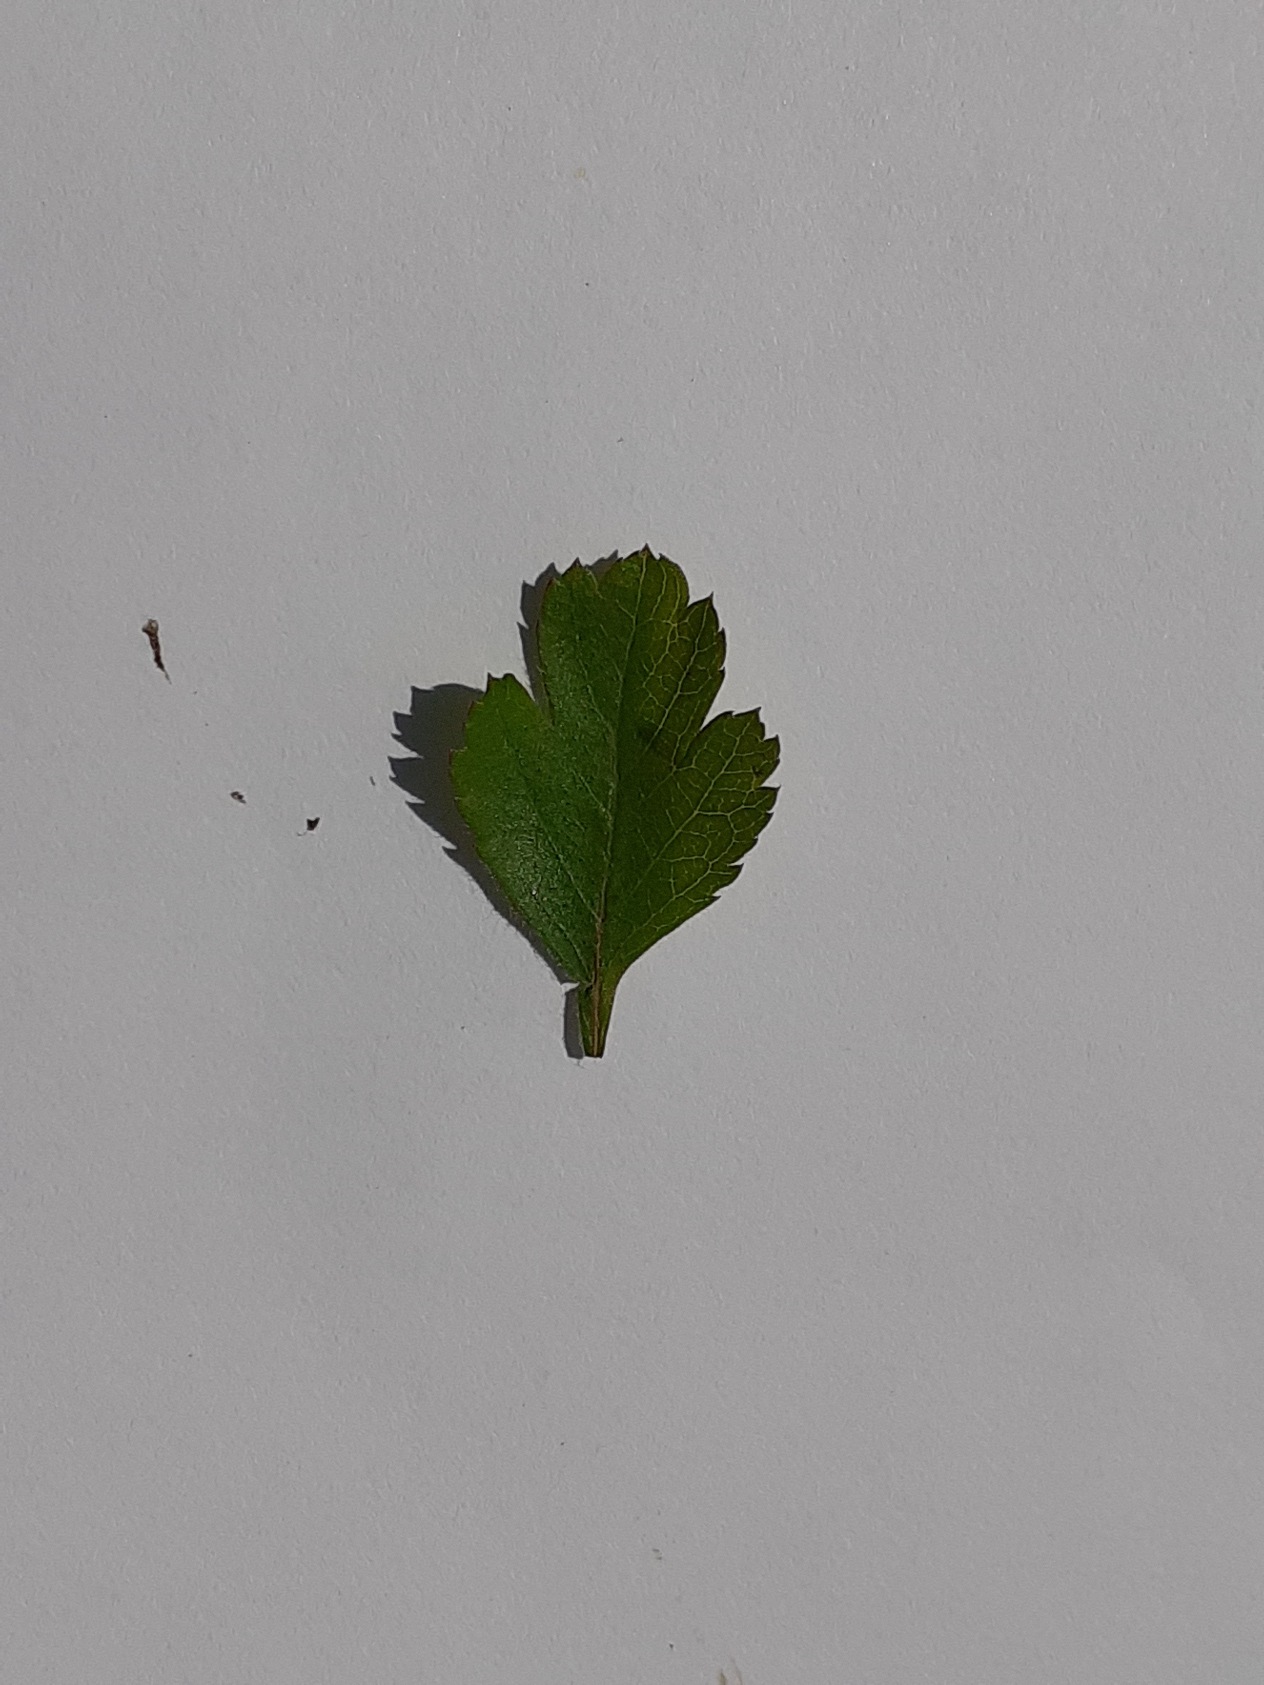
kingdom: Plantae
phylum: Tracheophyta
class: Magnoliopsida
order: Rosales
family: Rosaceae
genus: Crataegus
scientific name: Crataegus laevigata
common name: Almindelig hvidtjørn
